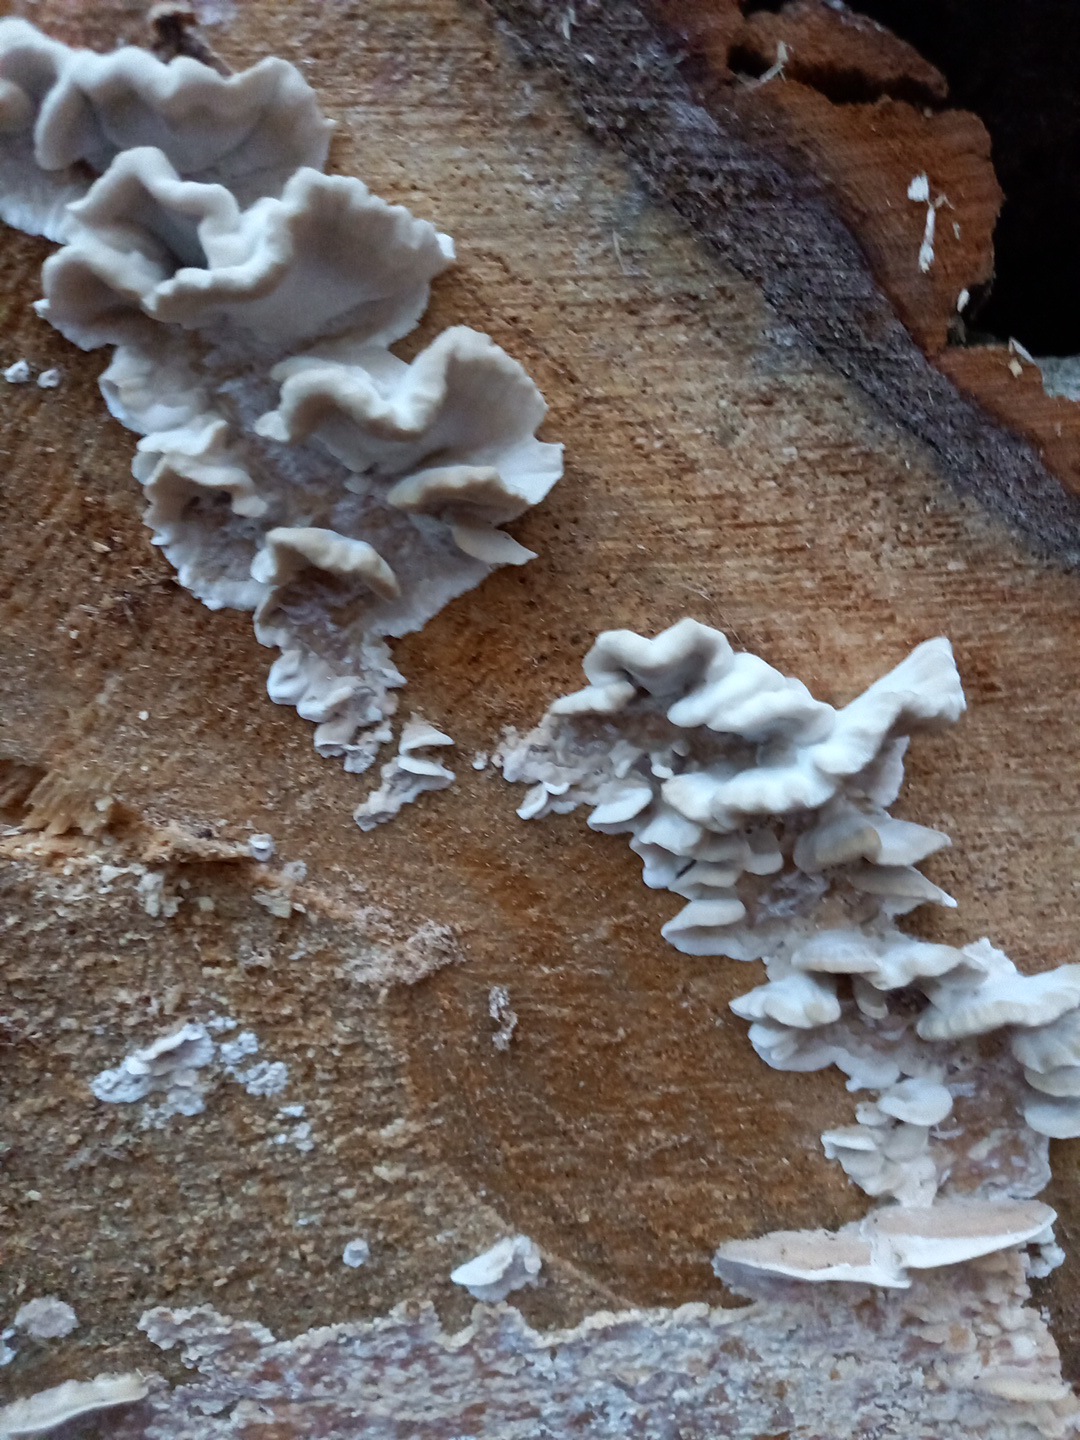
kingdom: Fungi
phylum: Basidiomycota
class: Agaricomycetes
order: Polyporales
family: Phanerochaetaceae
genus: Bjerkandera
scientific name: Bjerkandera fumosa
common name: grågul sodporesvamp
